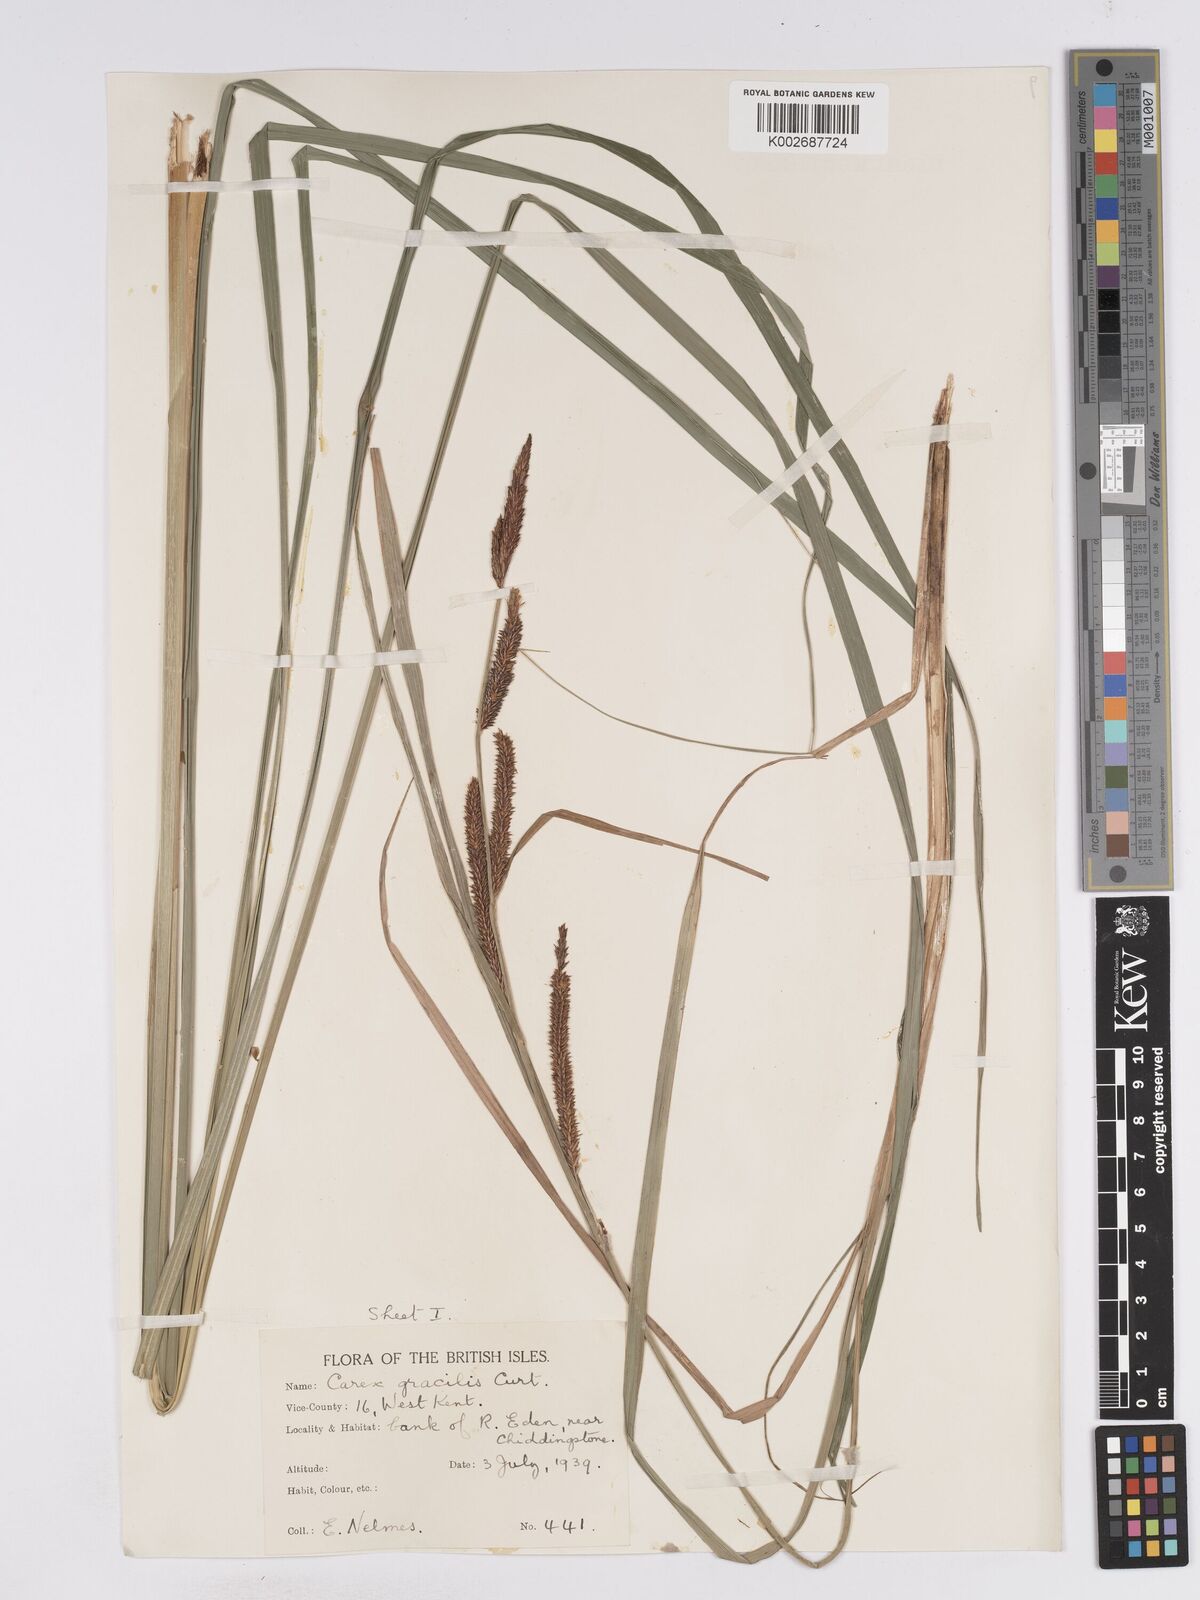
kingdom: Plantae
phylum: Tracheophyta
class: Liliopsida
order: Poales
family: Cyperaceae
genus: Carex
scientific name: Carex acuta
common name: Slender tufted-sedge
